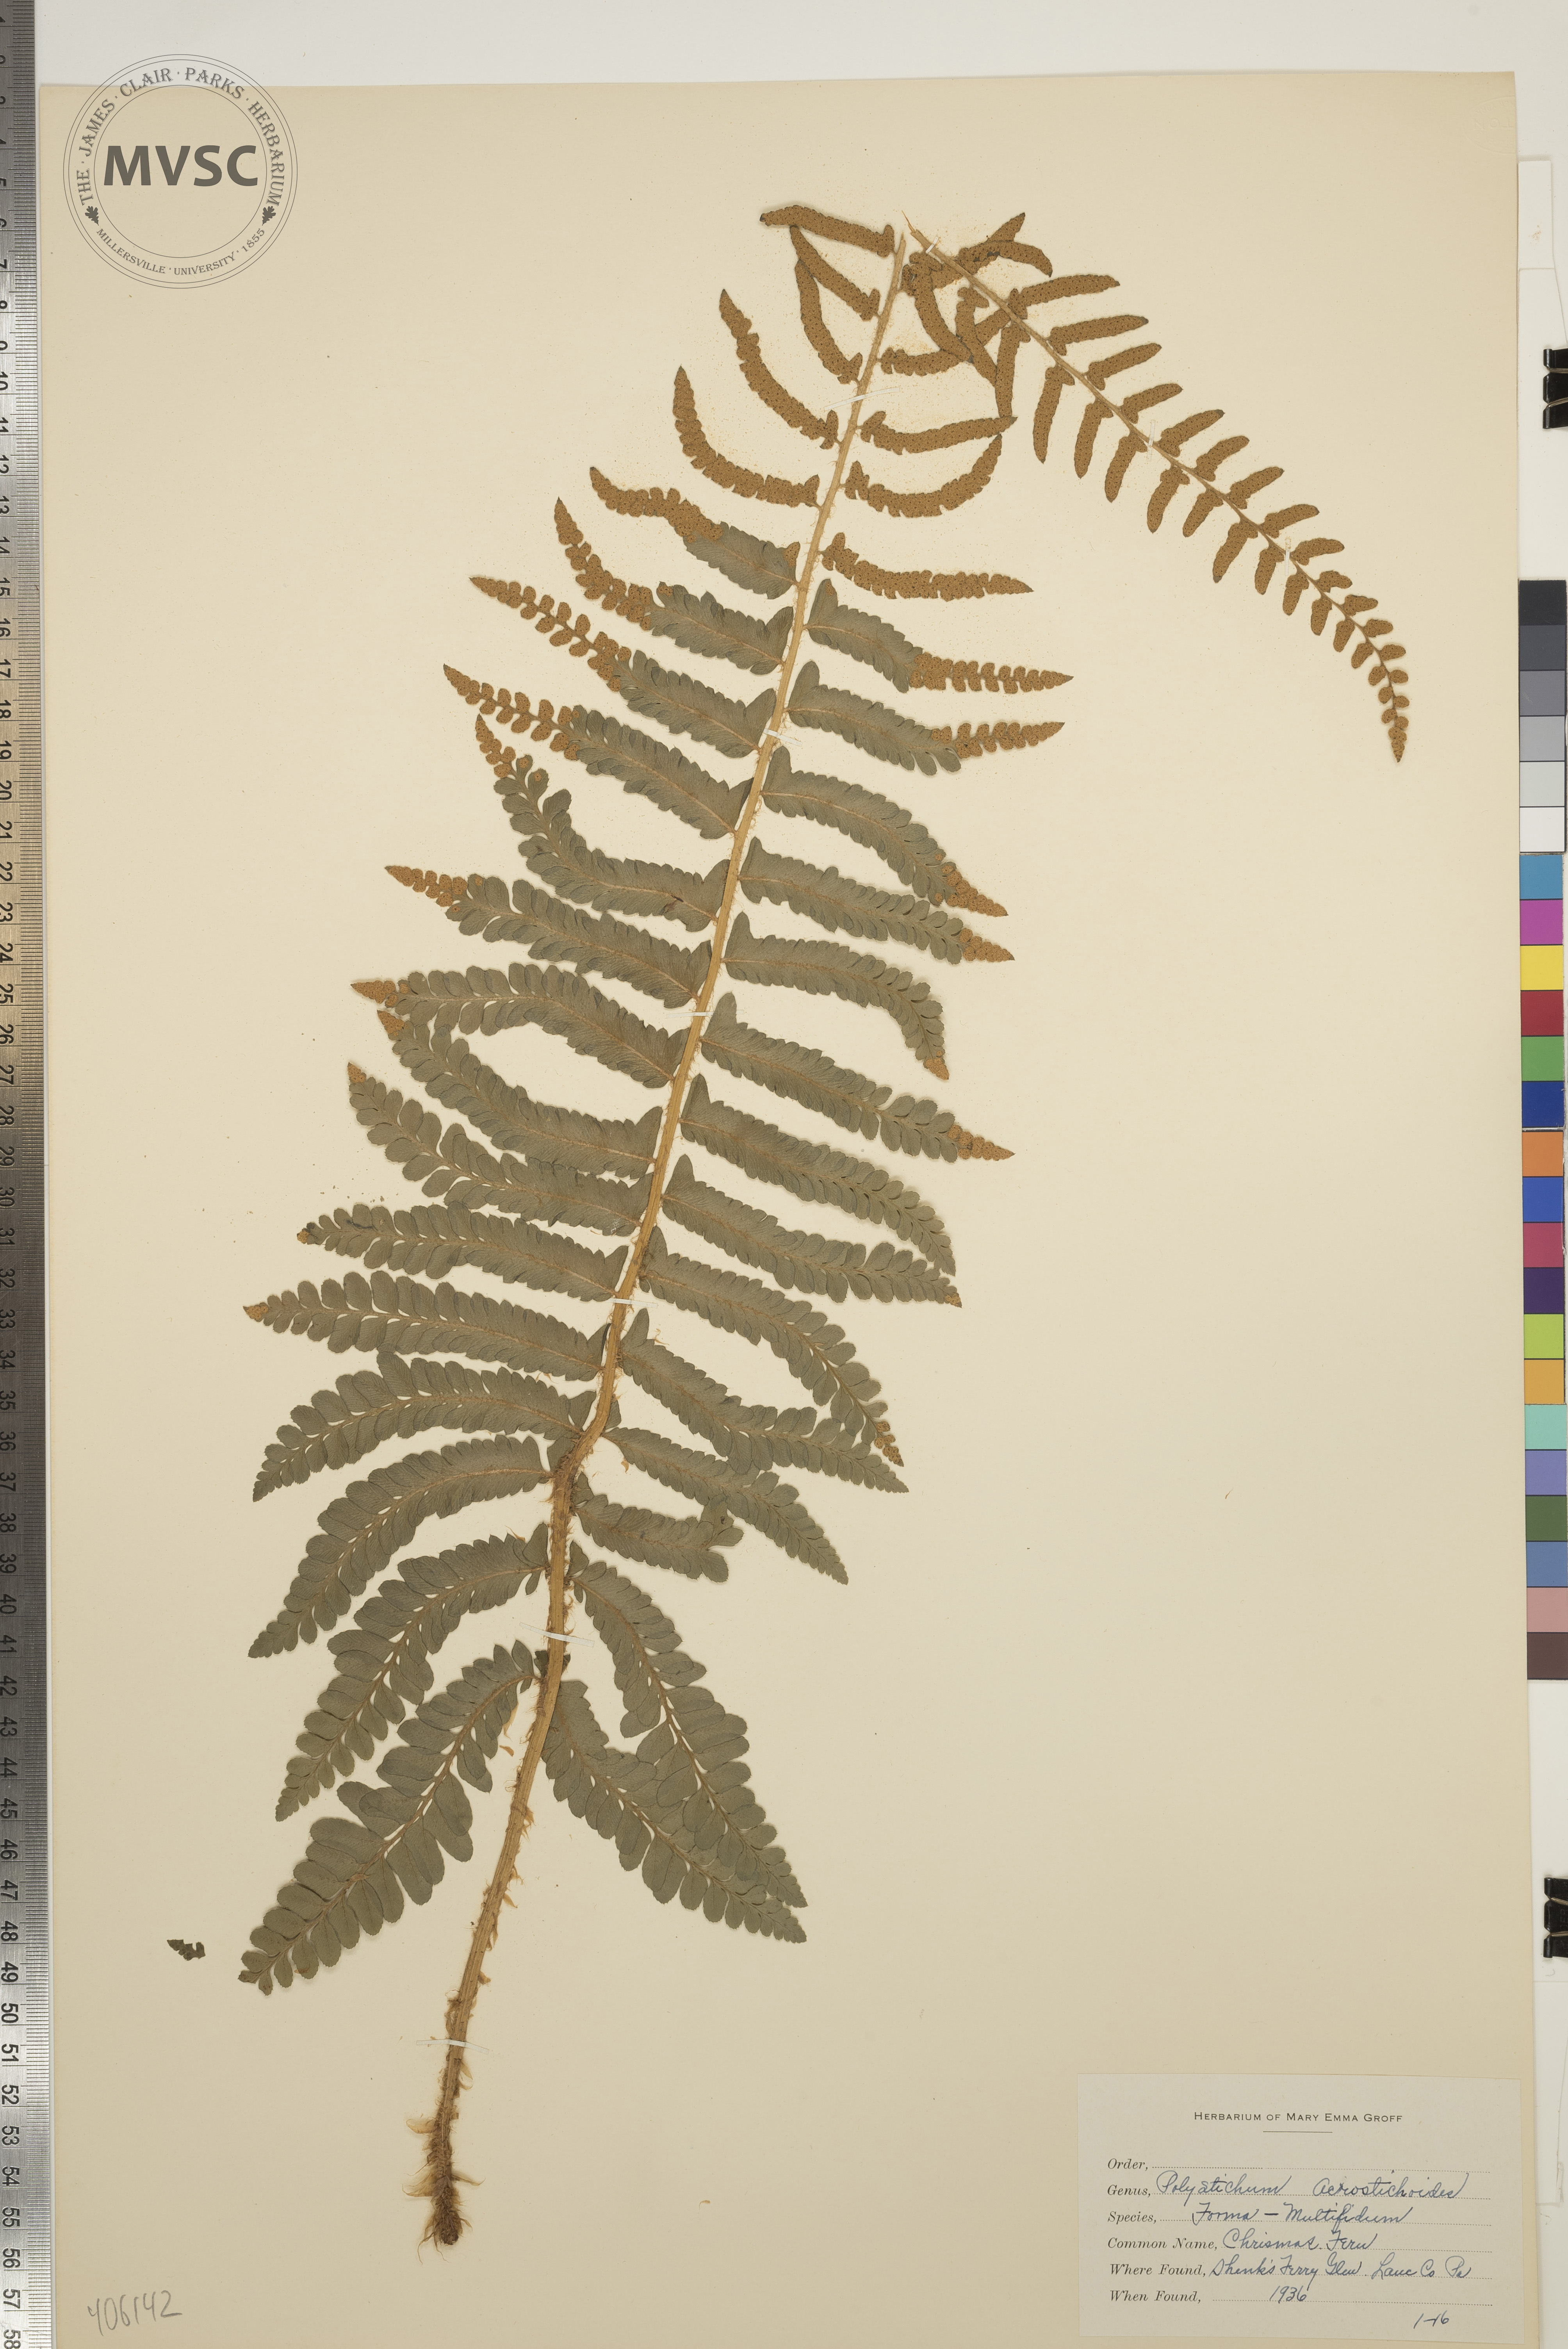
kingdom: Plantae
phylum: Tracheophyta
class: Polypodiopsida
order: Polypodiales
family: Dryopteridaceae
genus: Polystichum
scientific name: Polystichum acrostichoides
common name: Christmas Fern
